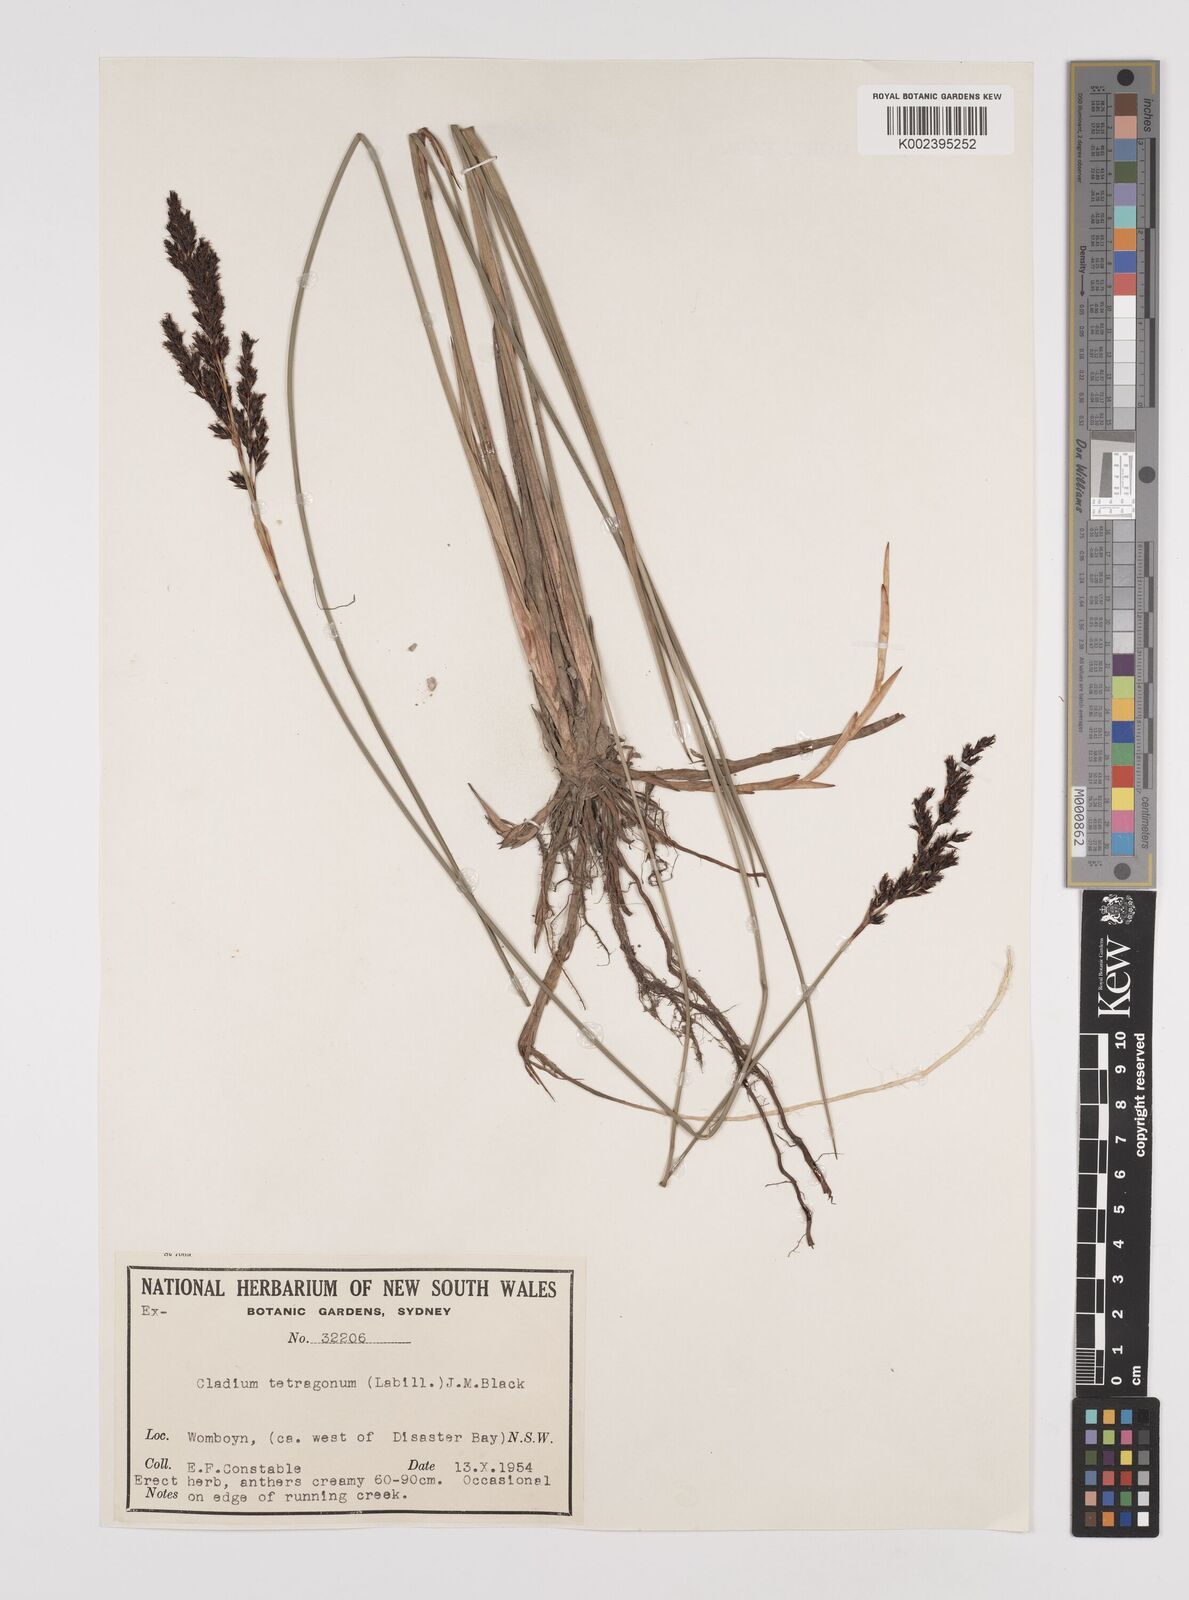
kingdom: Plantae
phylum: Tracheophyta
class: Liliopsida
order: Poales
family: Cyperaceae
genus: Machaerina
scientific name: Machaerina tetragona
